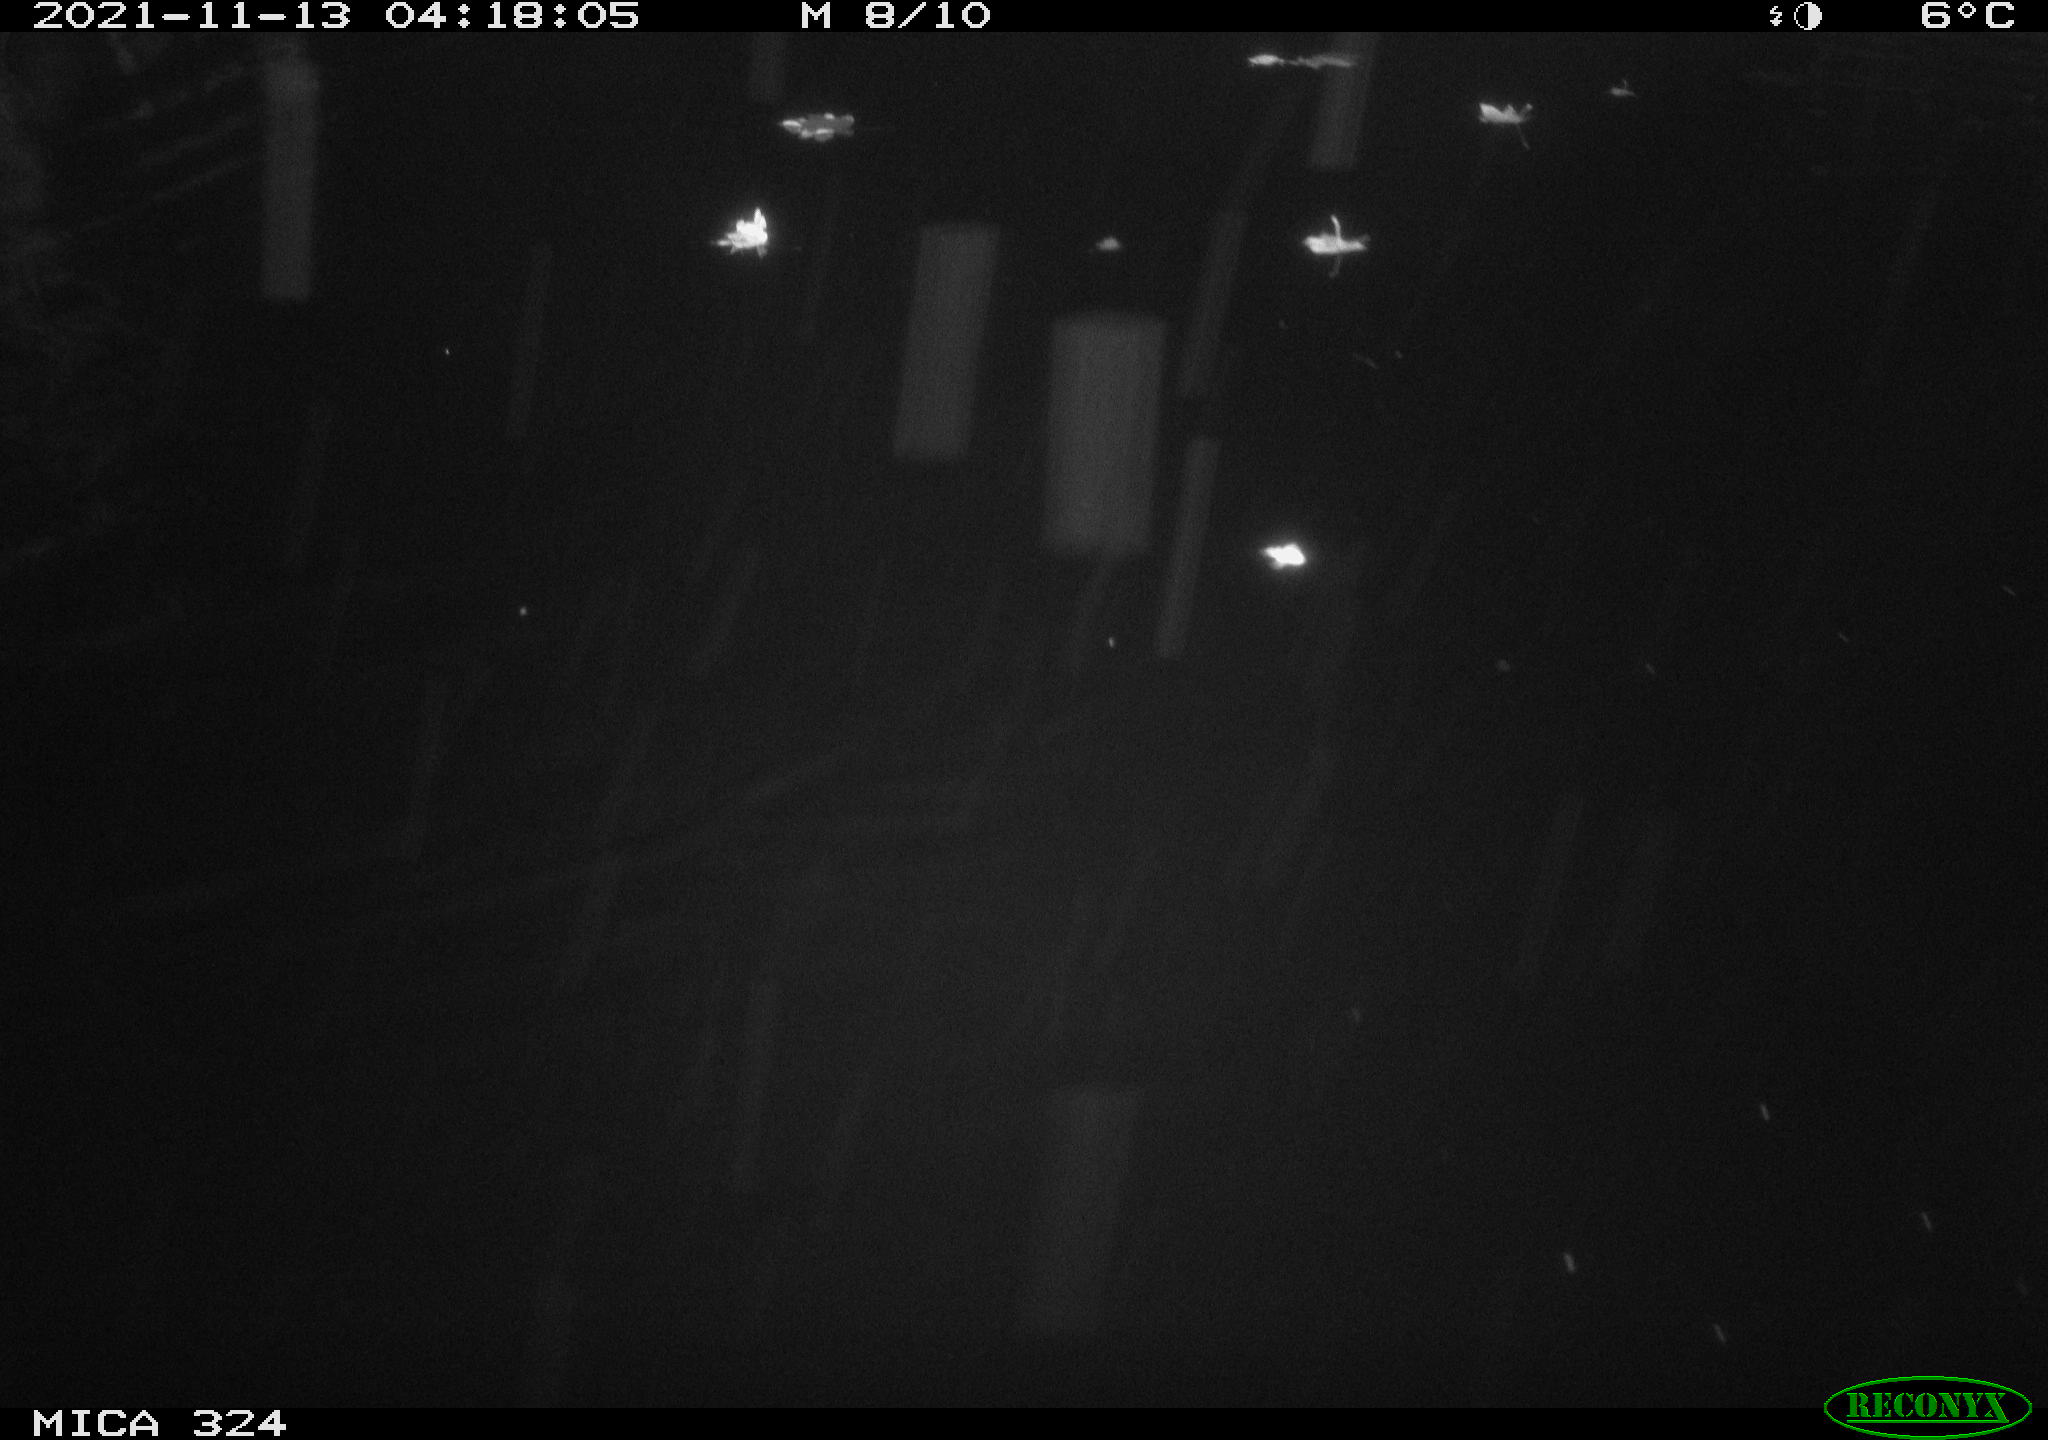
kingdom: Animalia
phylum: Chordata
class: Mammalia
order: Rodentia
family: Cricetidae
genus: Ondatra
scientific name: Ondatra zibethicus
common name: Muskrat
